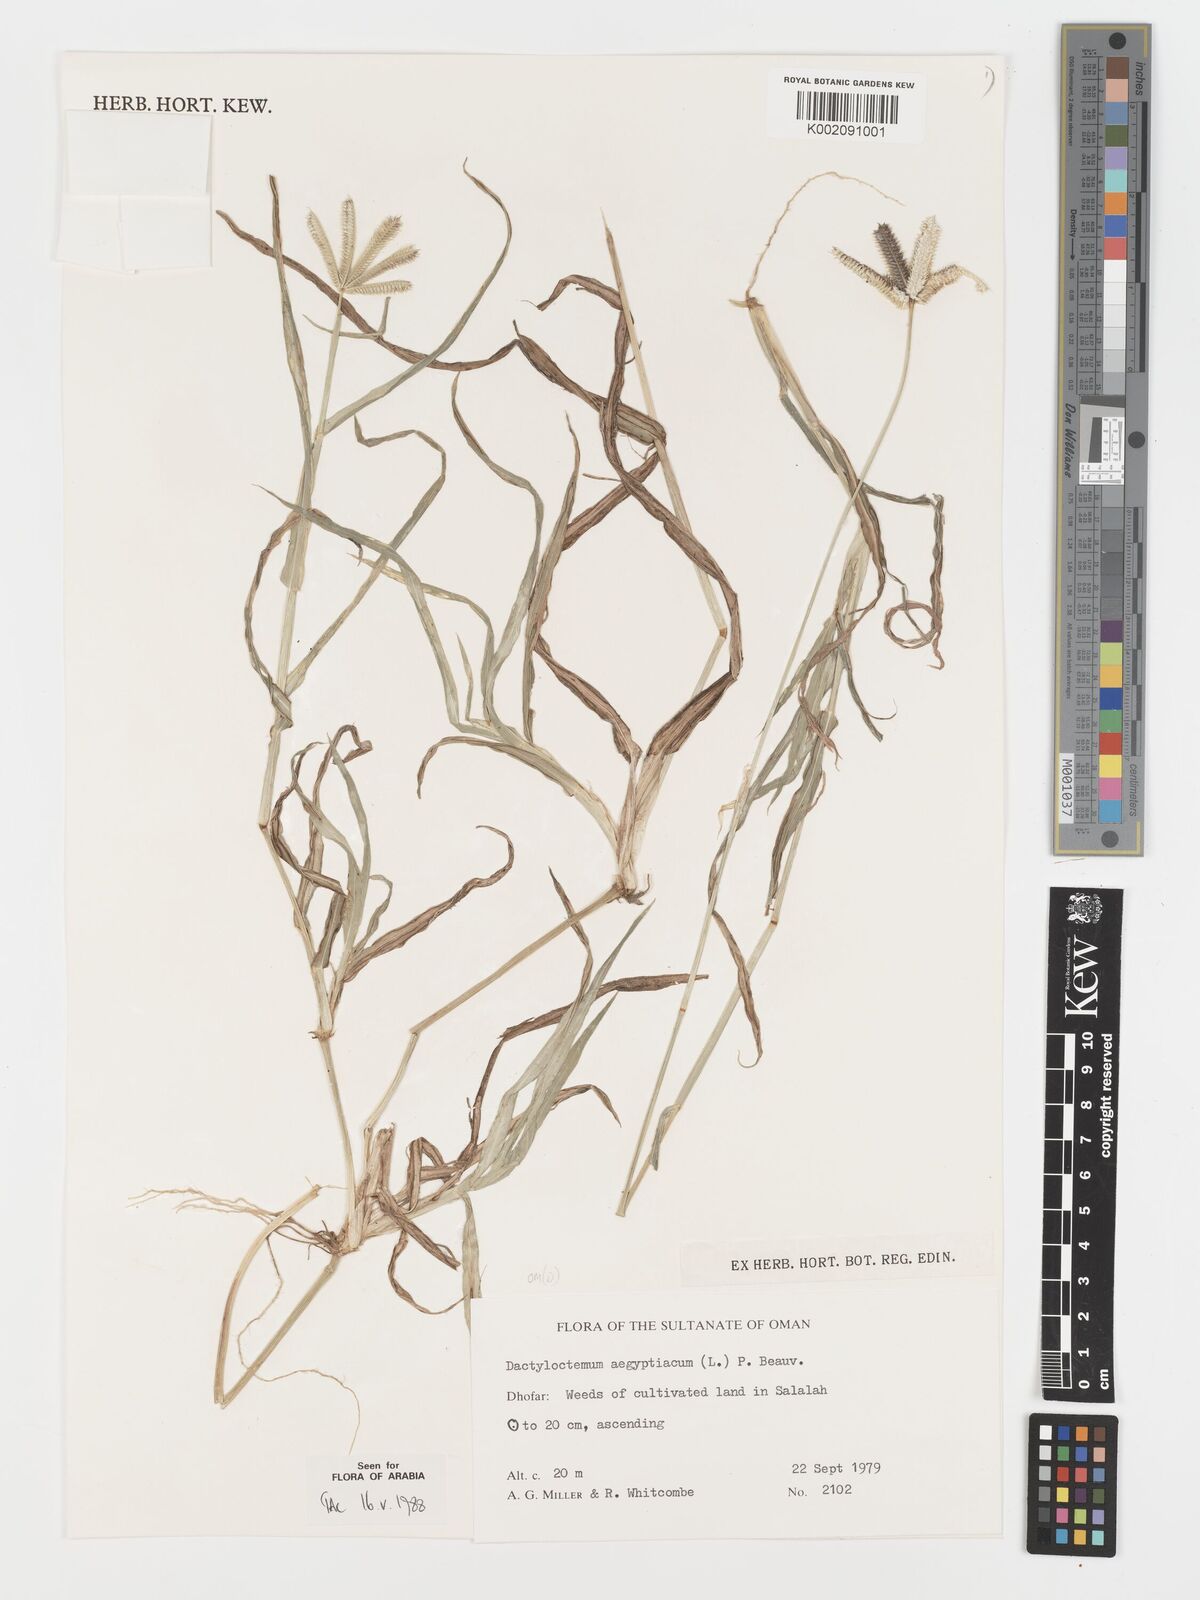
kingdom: Plantae
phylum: Tracheophyta
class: Liliopsida
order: Poales
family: Poaceae
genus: Dactyloctenium
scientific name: Dactyloctenium aegyptium
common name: Egyptian grass
